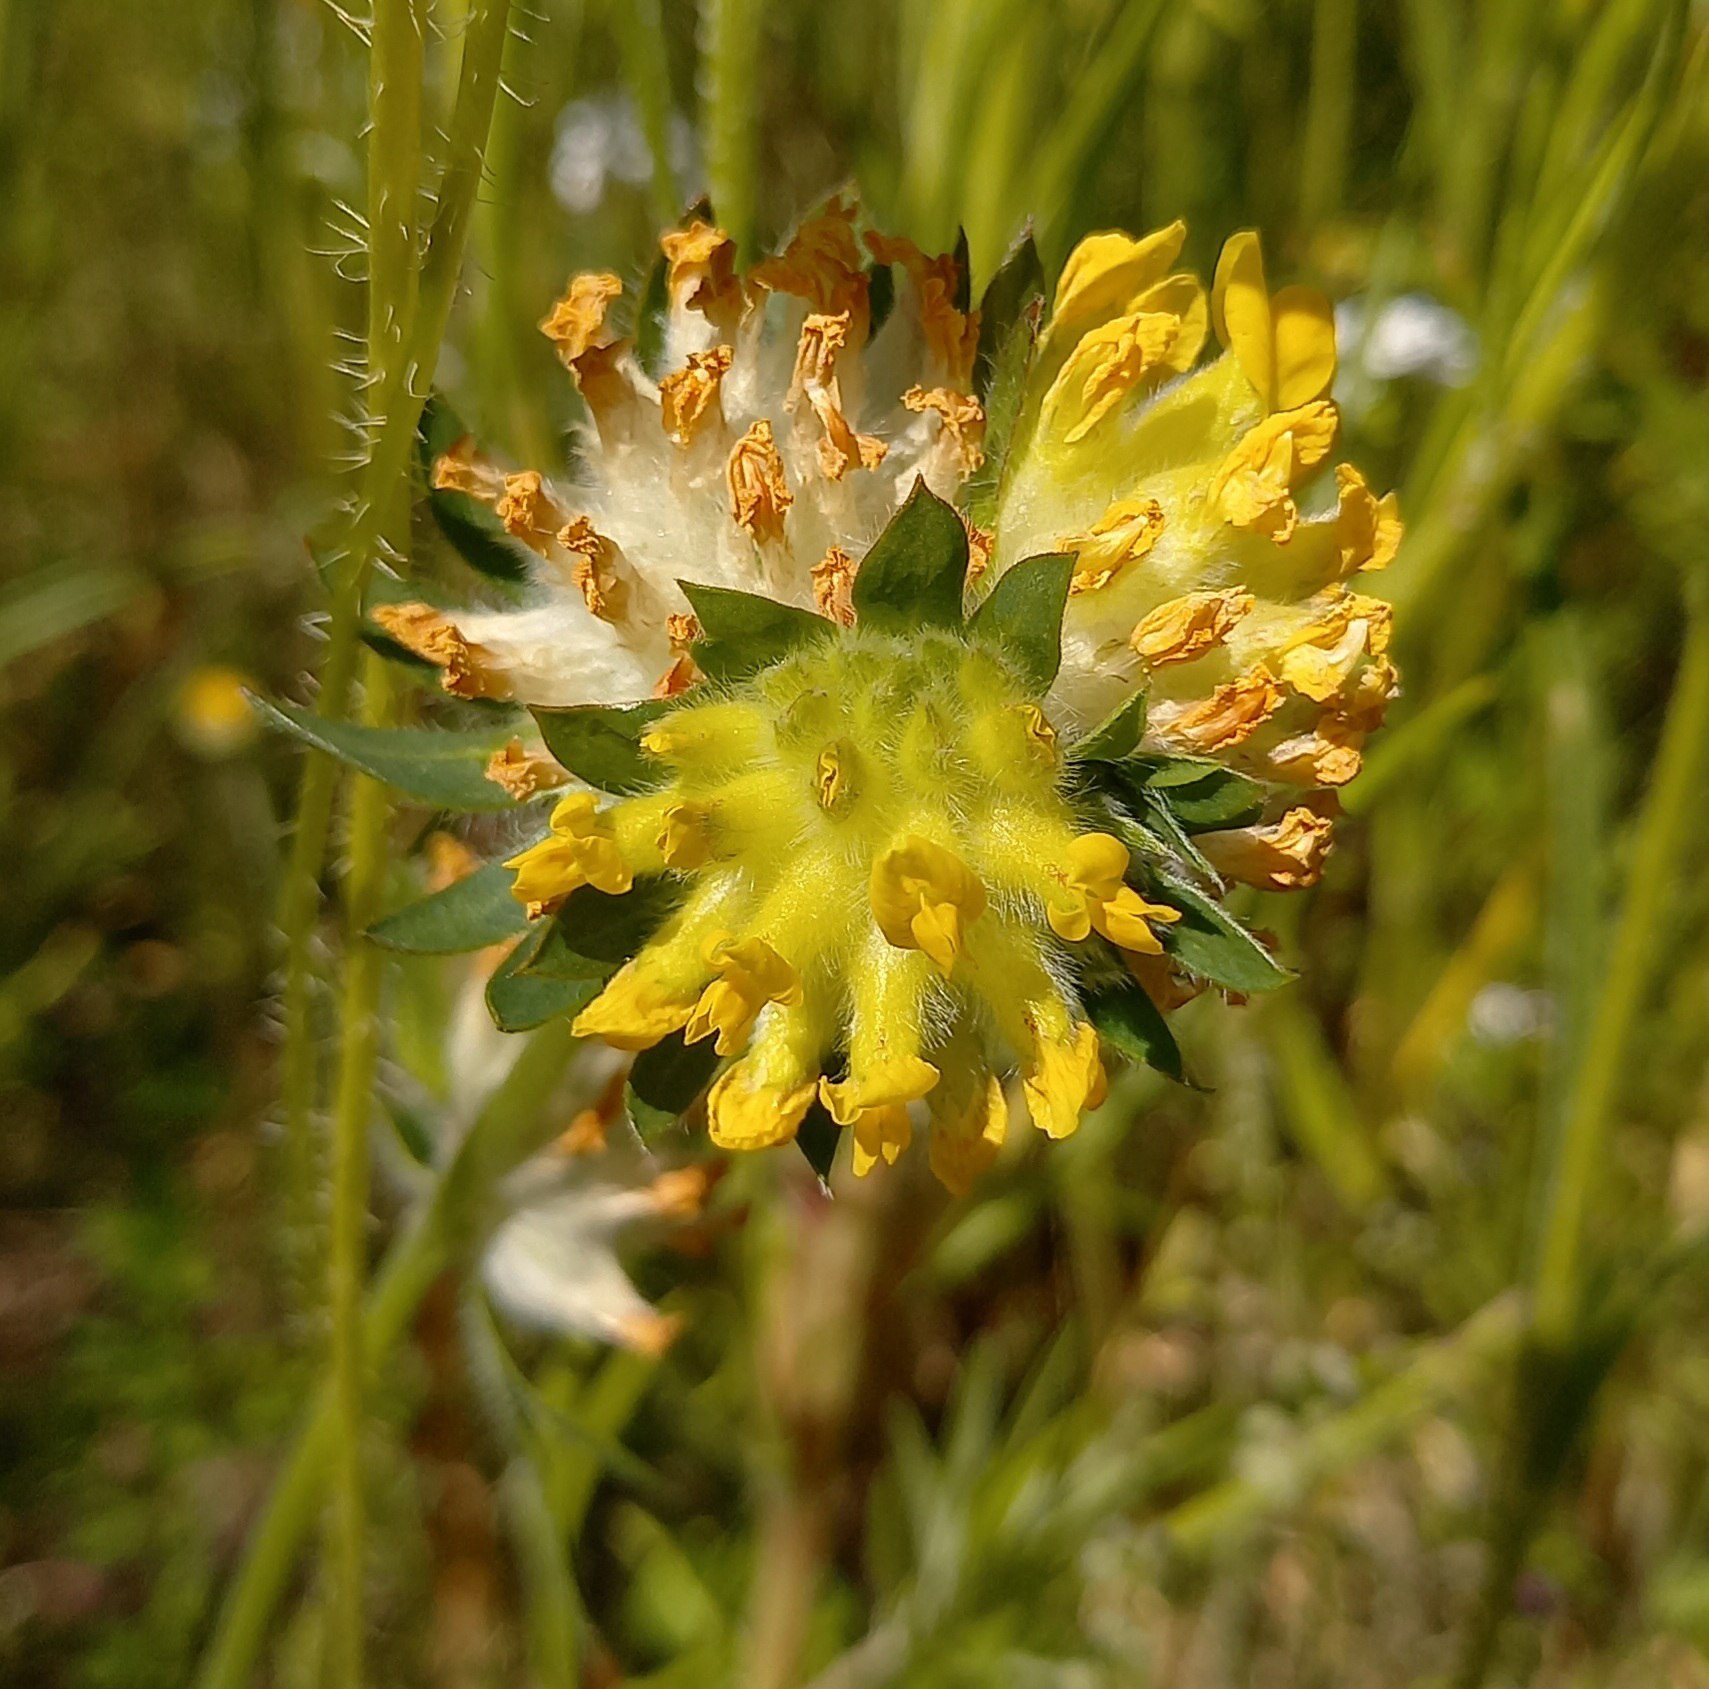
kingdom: Plantae
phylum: Tracheophyta
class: Magnoliopsida
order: Fabales
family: Fabaceae
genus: Anthyllis
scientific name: Anthyllis vulneraria
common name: Rundbælg
